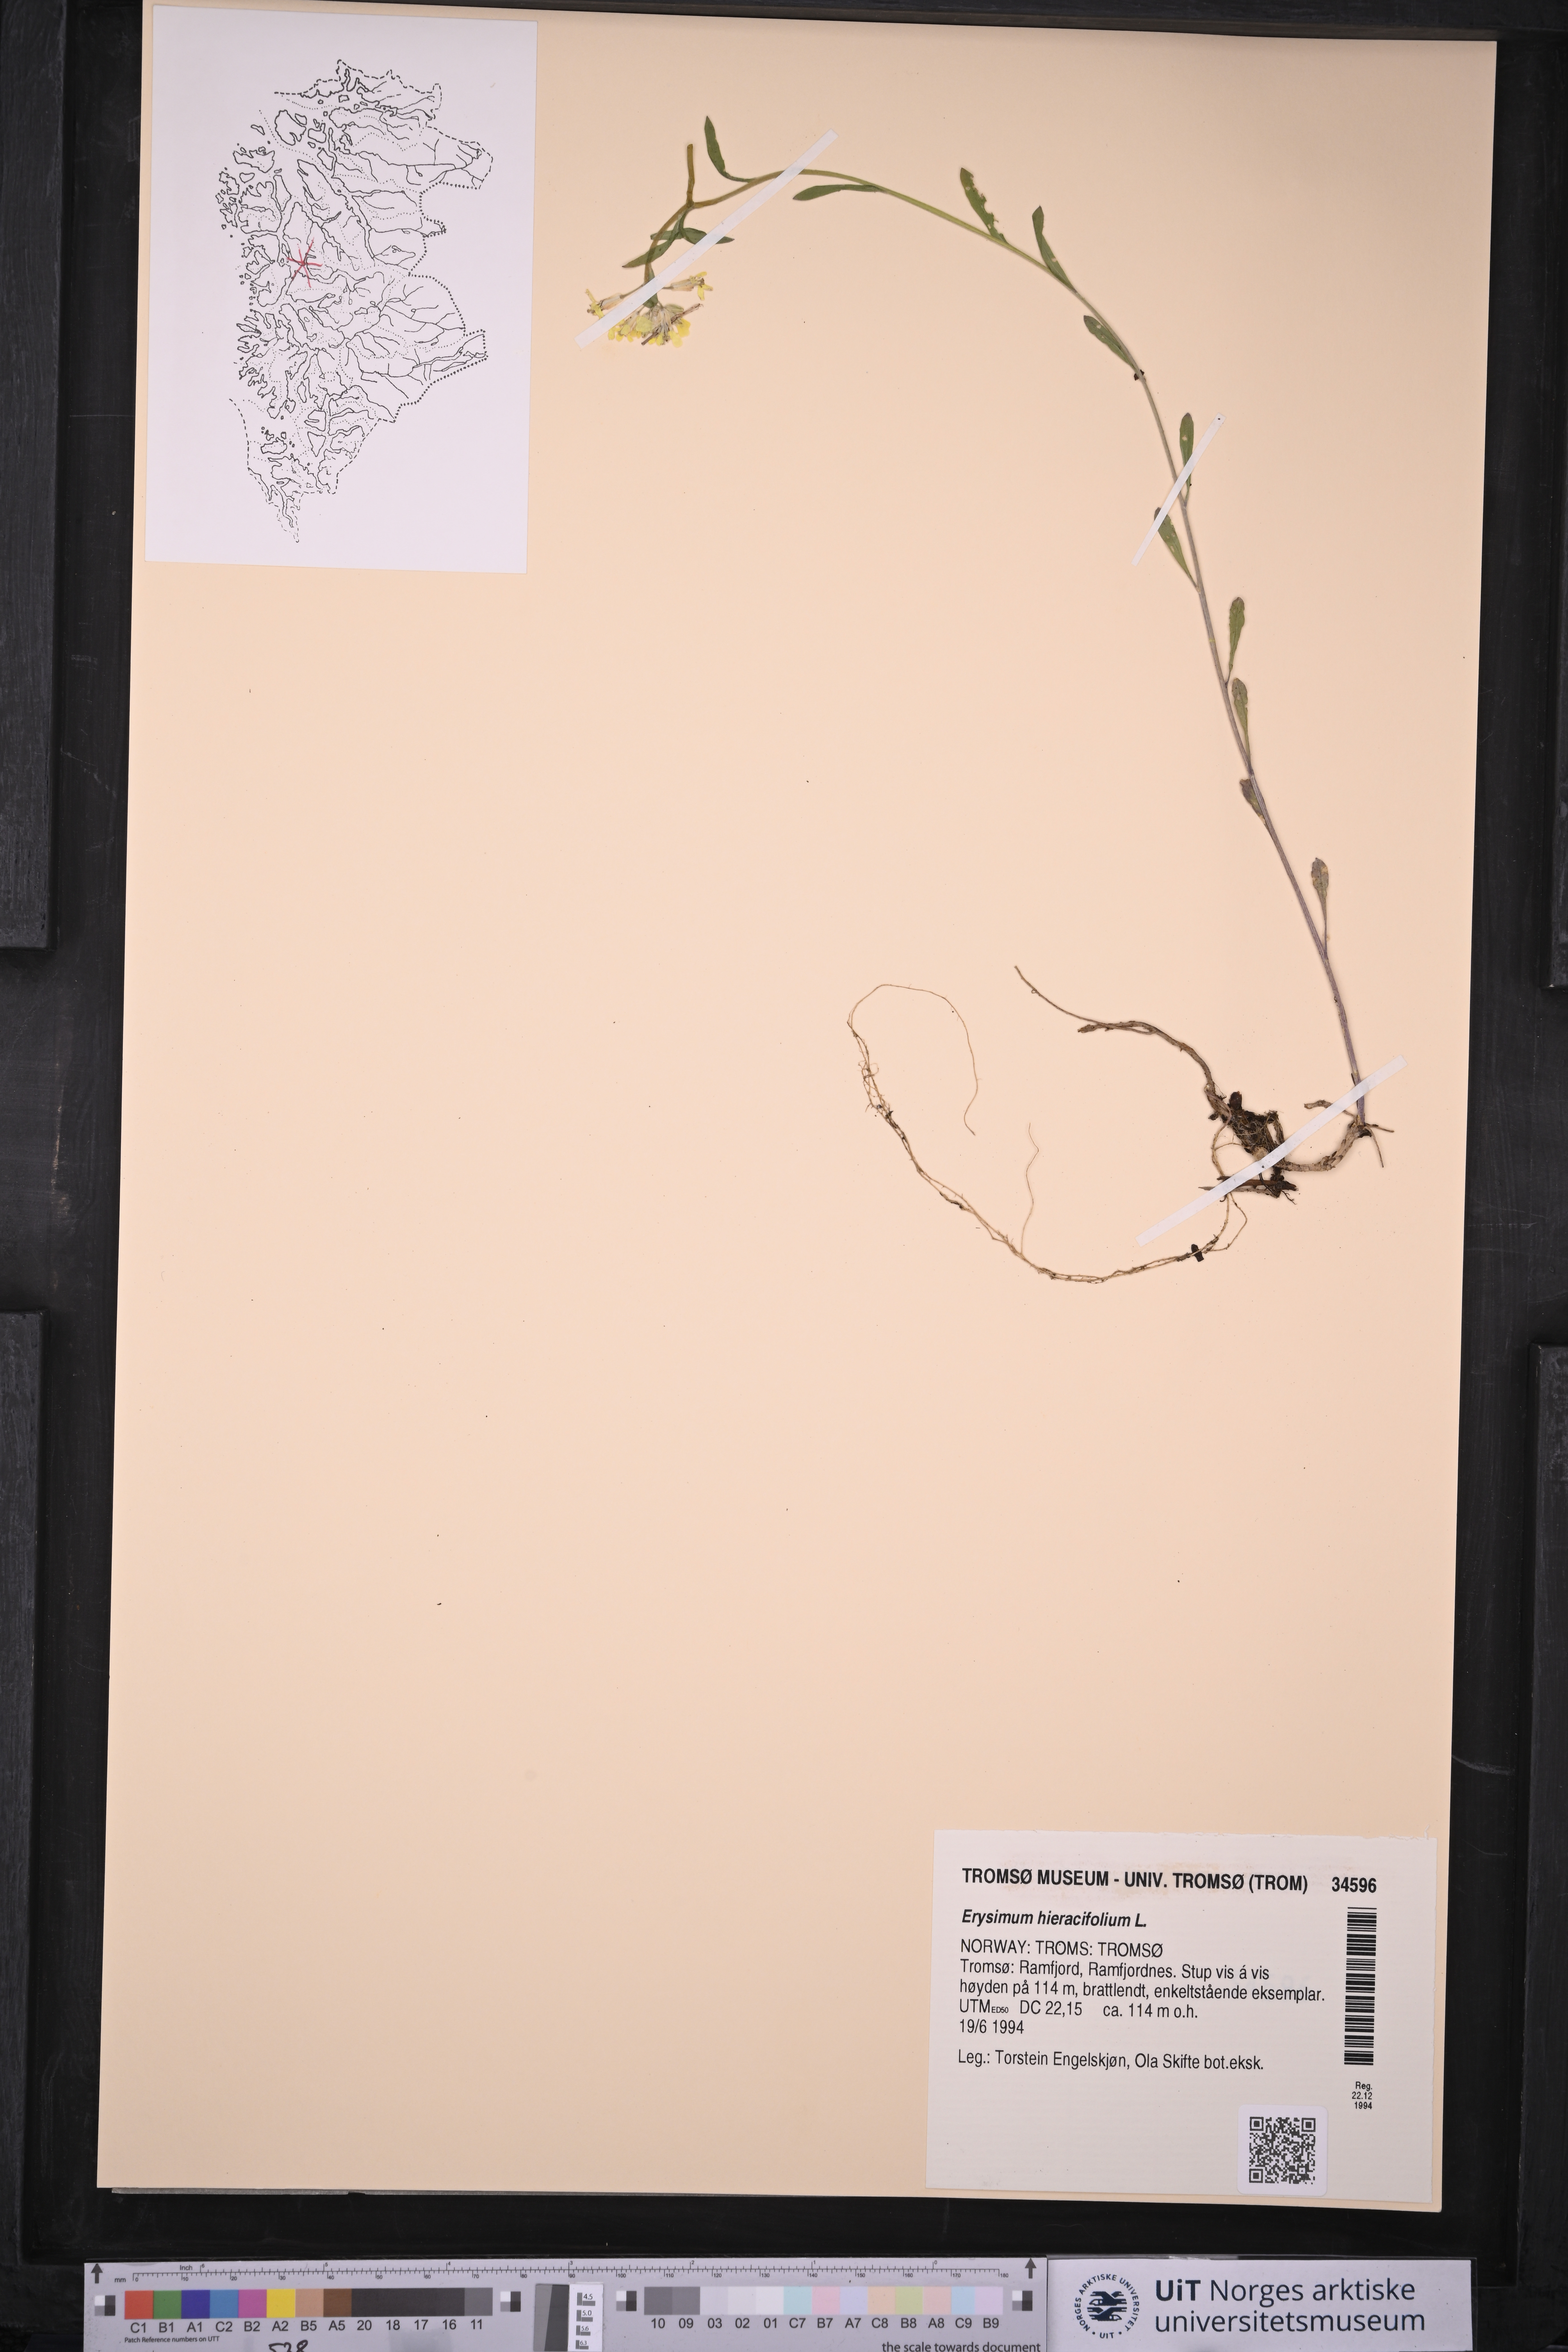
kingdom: Plantae
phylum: Tracheophyta
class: Magnoliopsida
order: Brassicales
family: Brassicaceae
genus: Erysimum
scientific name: Erysimum hieraciifolium
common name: European wallflower
